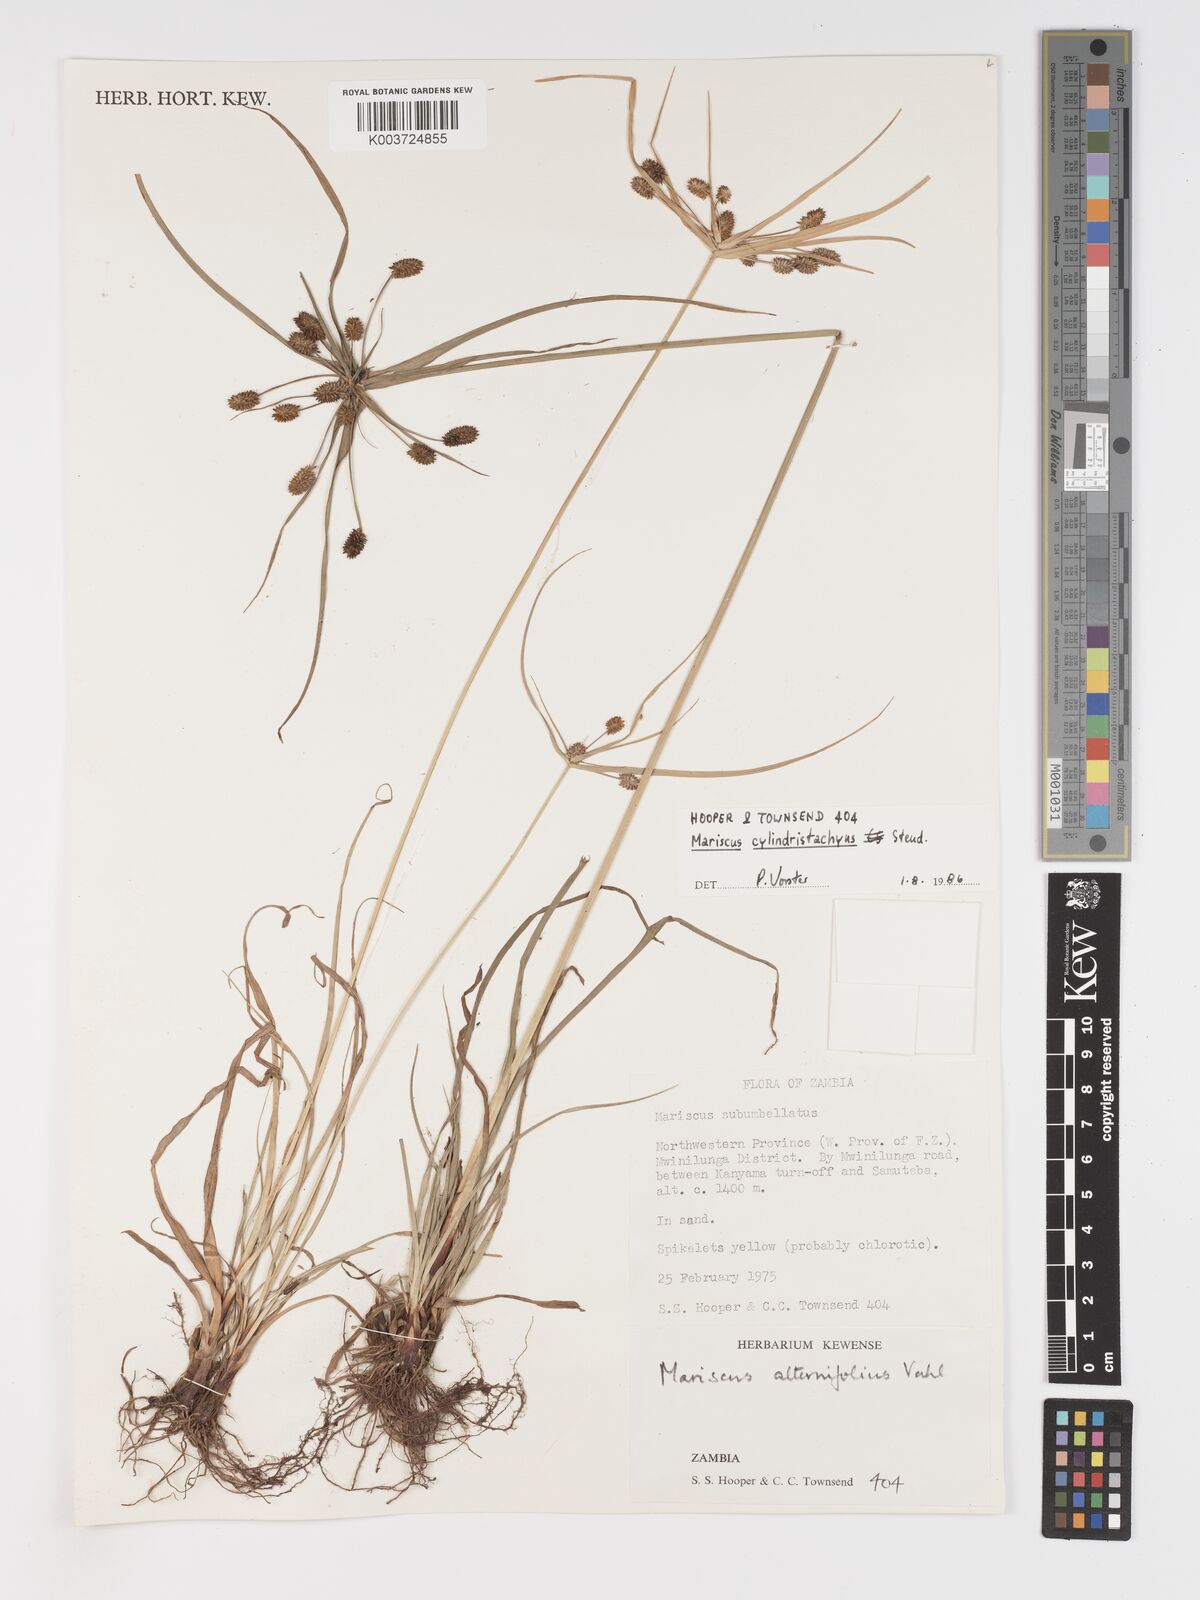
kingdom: Plantae
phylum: Tracheophyta
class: Liliopsida
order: Poales
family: Cyperaceae
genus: Cyperus
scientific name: Cyperus cyperoides
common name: Pacific island flat sedge
